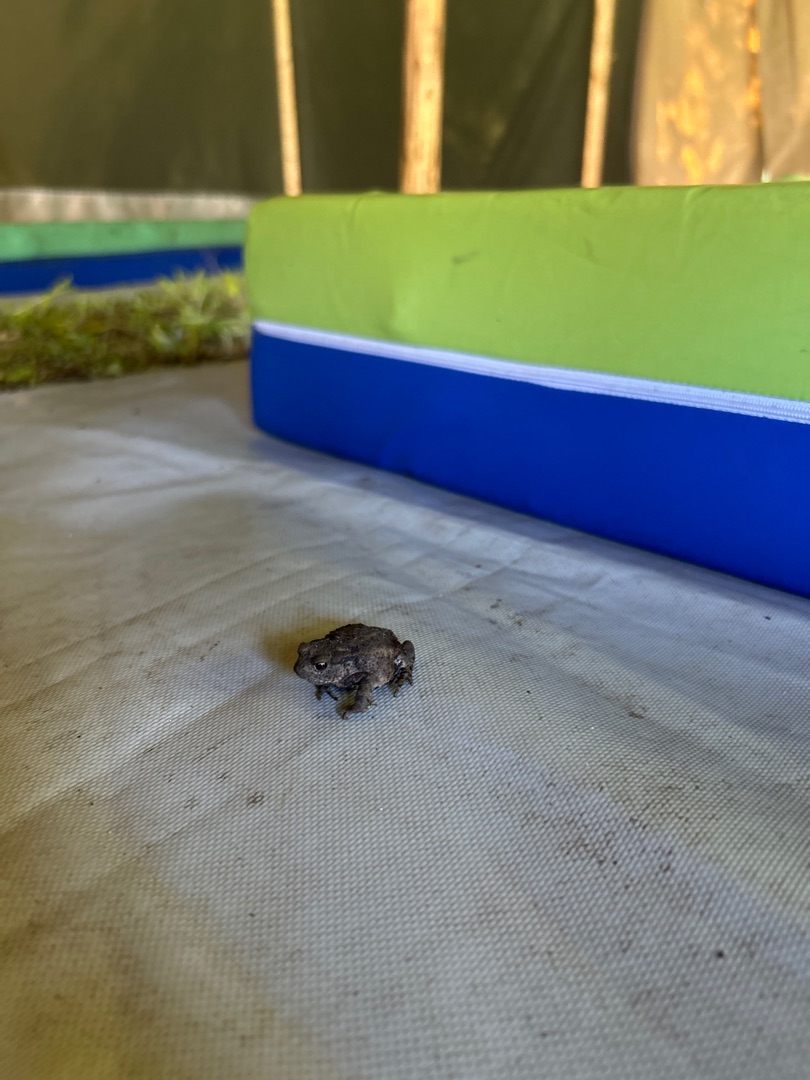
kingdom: Animalia
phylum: Chordata
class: Amphibia
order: Anura
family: Bufonidae
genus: Bufo
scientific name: Bufo bufo
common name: Skrubtudse
